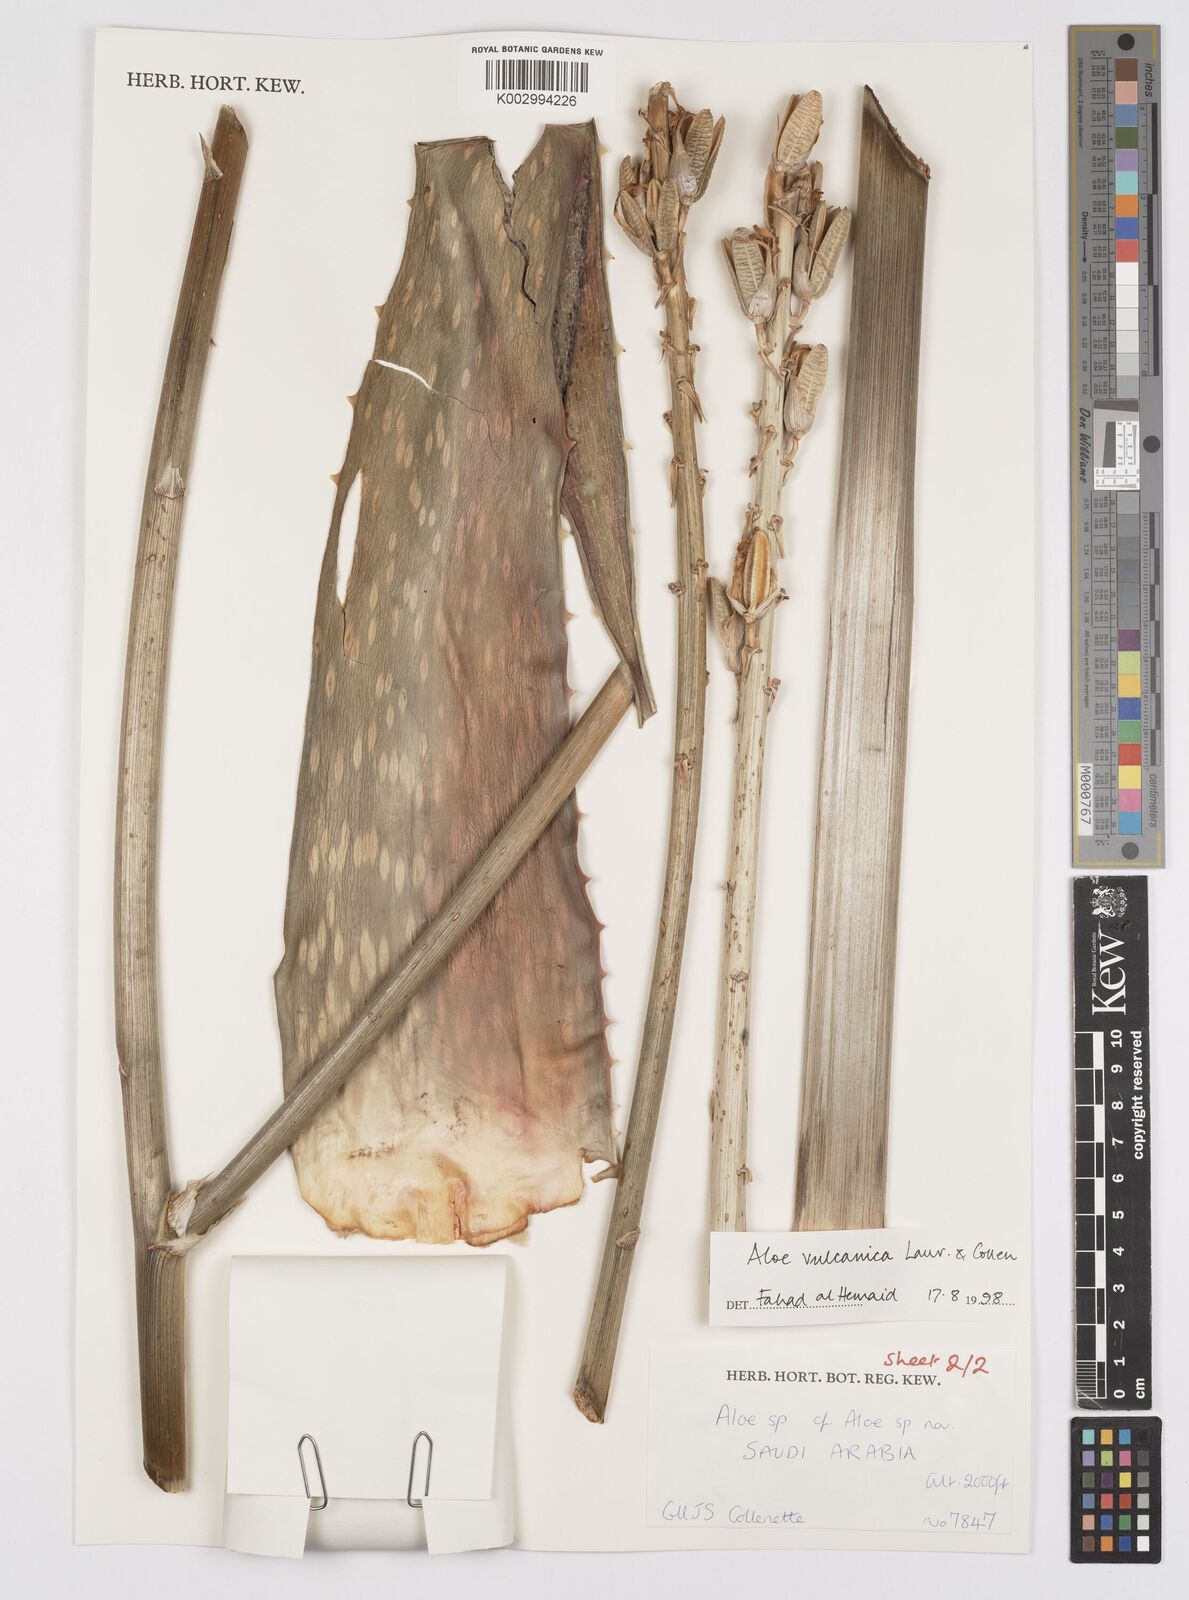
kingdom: Plantae
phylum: Tracheophyta
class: Liliopsida
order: Asparagales
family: Asphodelaceae
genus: Aloe
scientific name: Aloe
